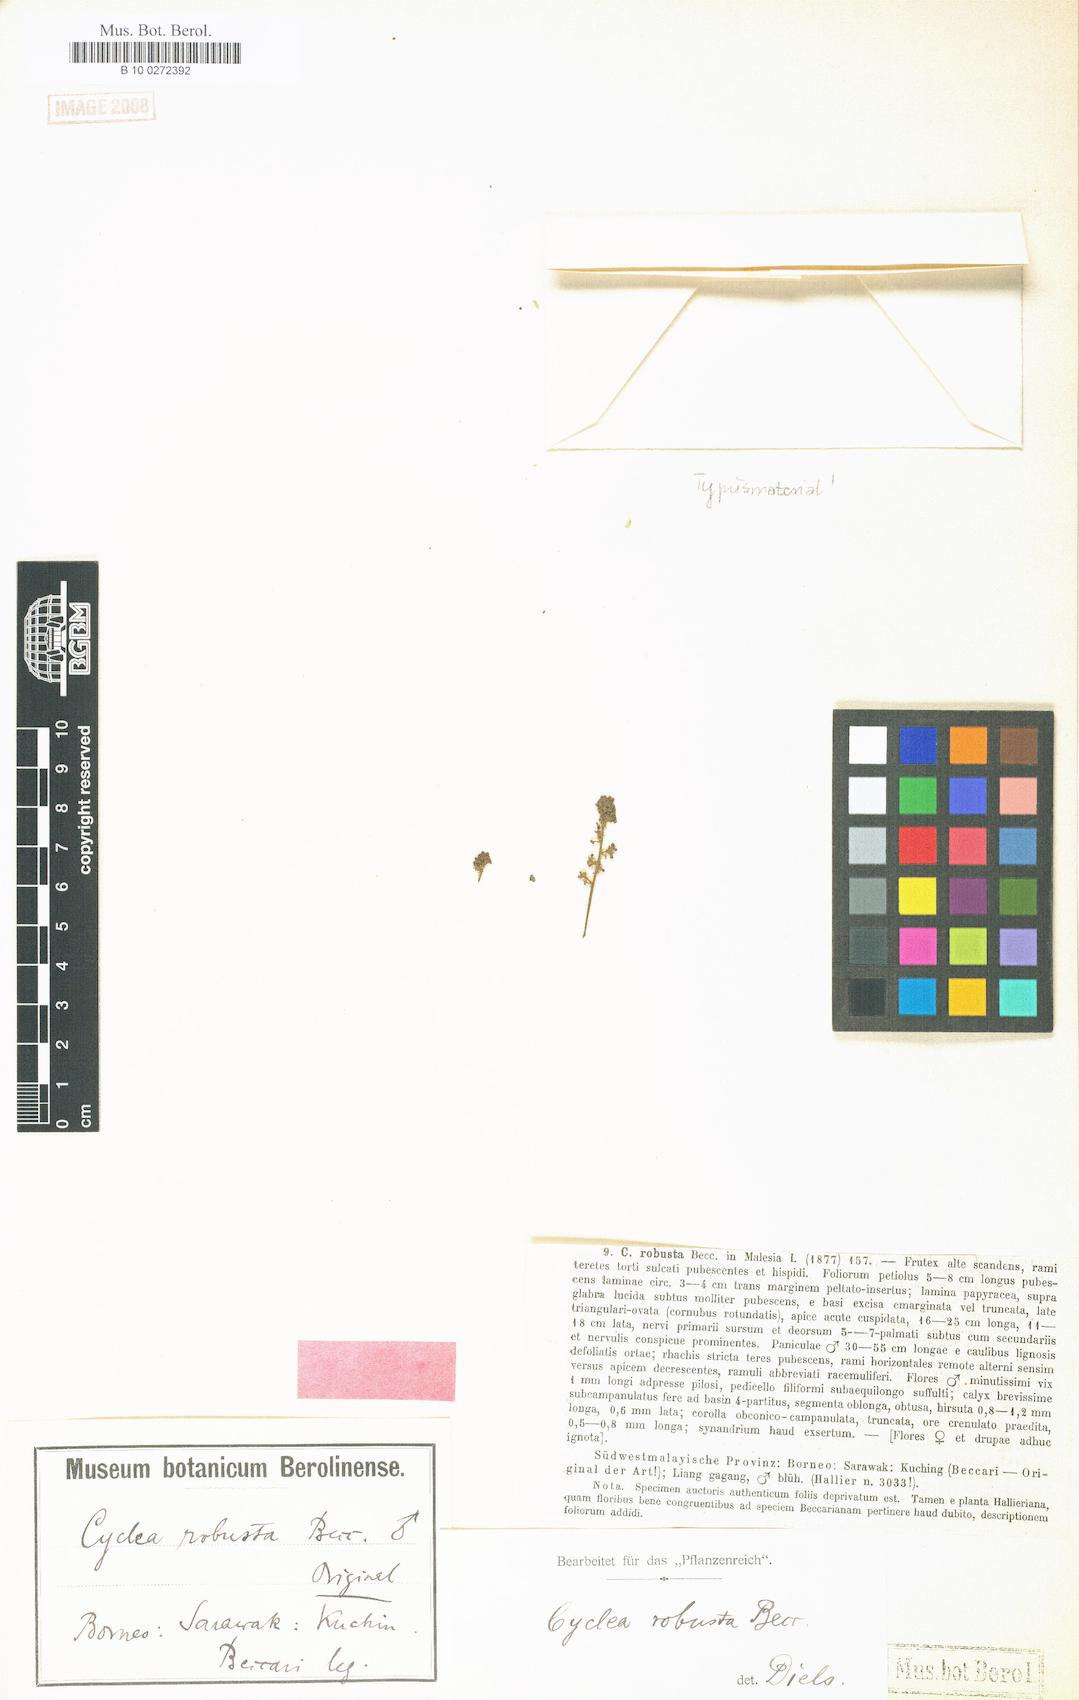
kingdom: Plantae
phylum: Tracheophyta
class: Magnoliopsida
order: Ranunculales
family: Menispermaceae
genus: Cyclea
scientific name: Cyclea robusta
